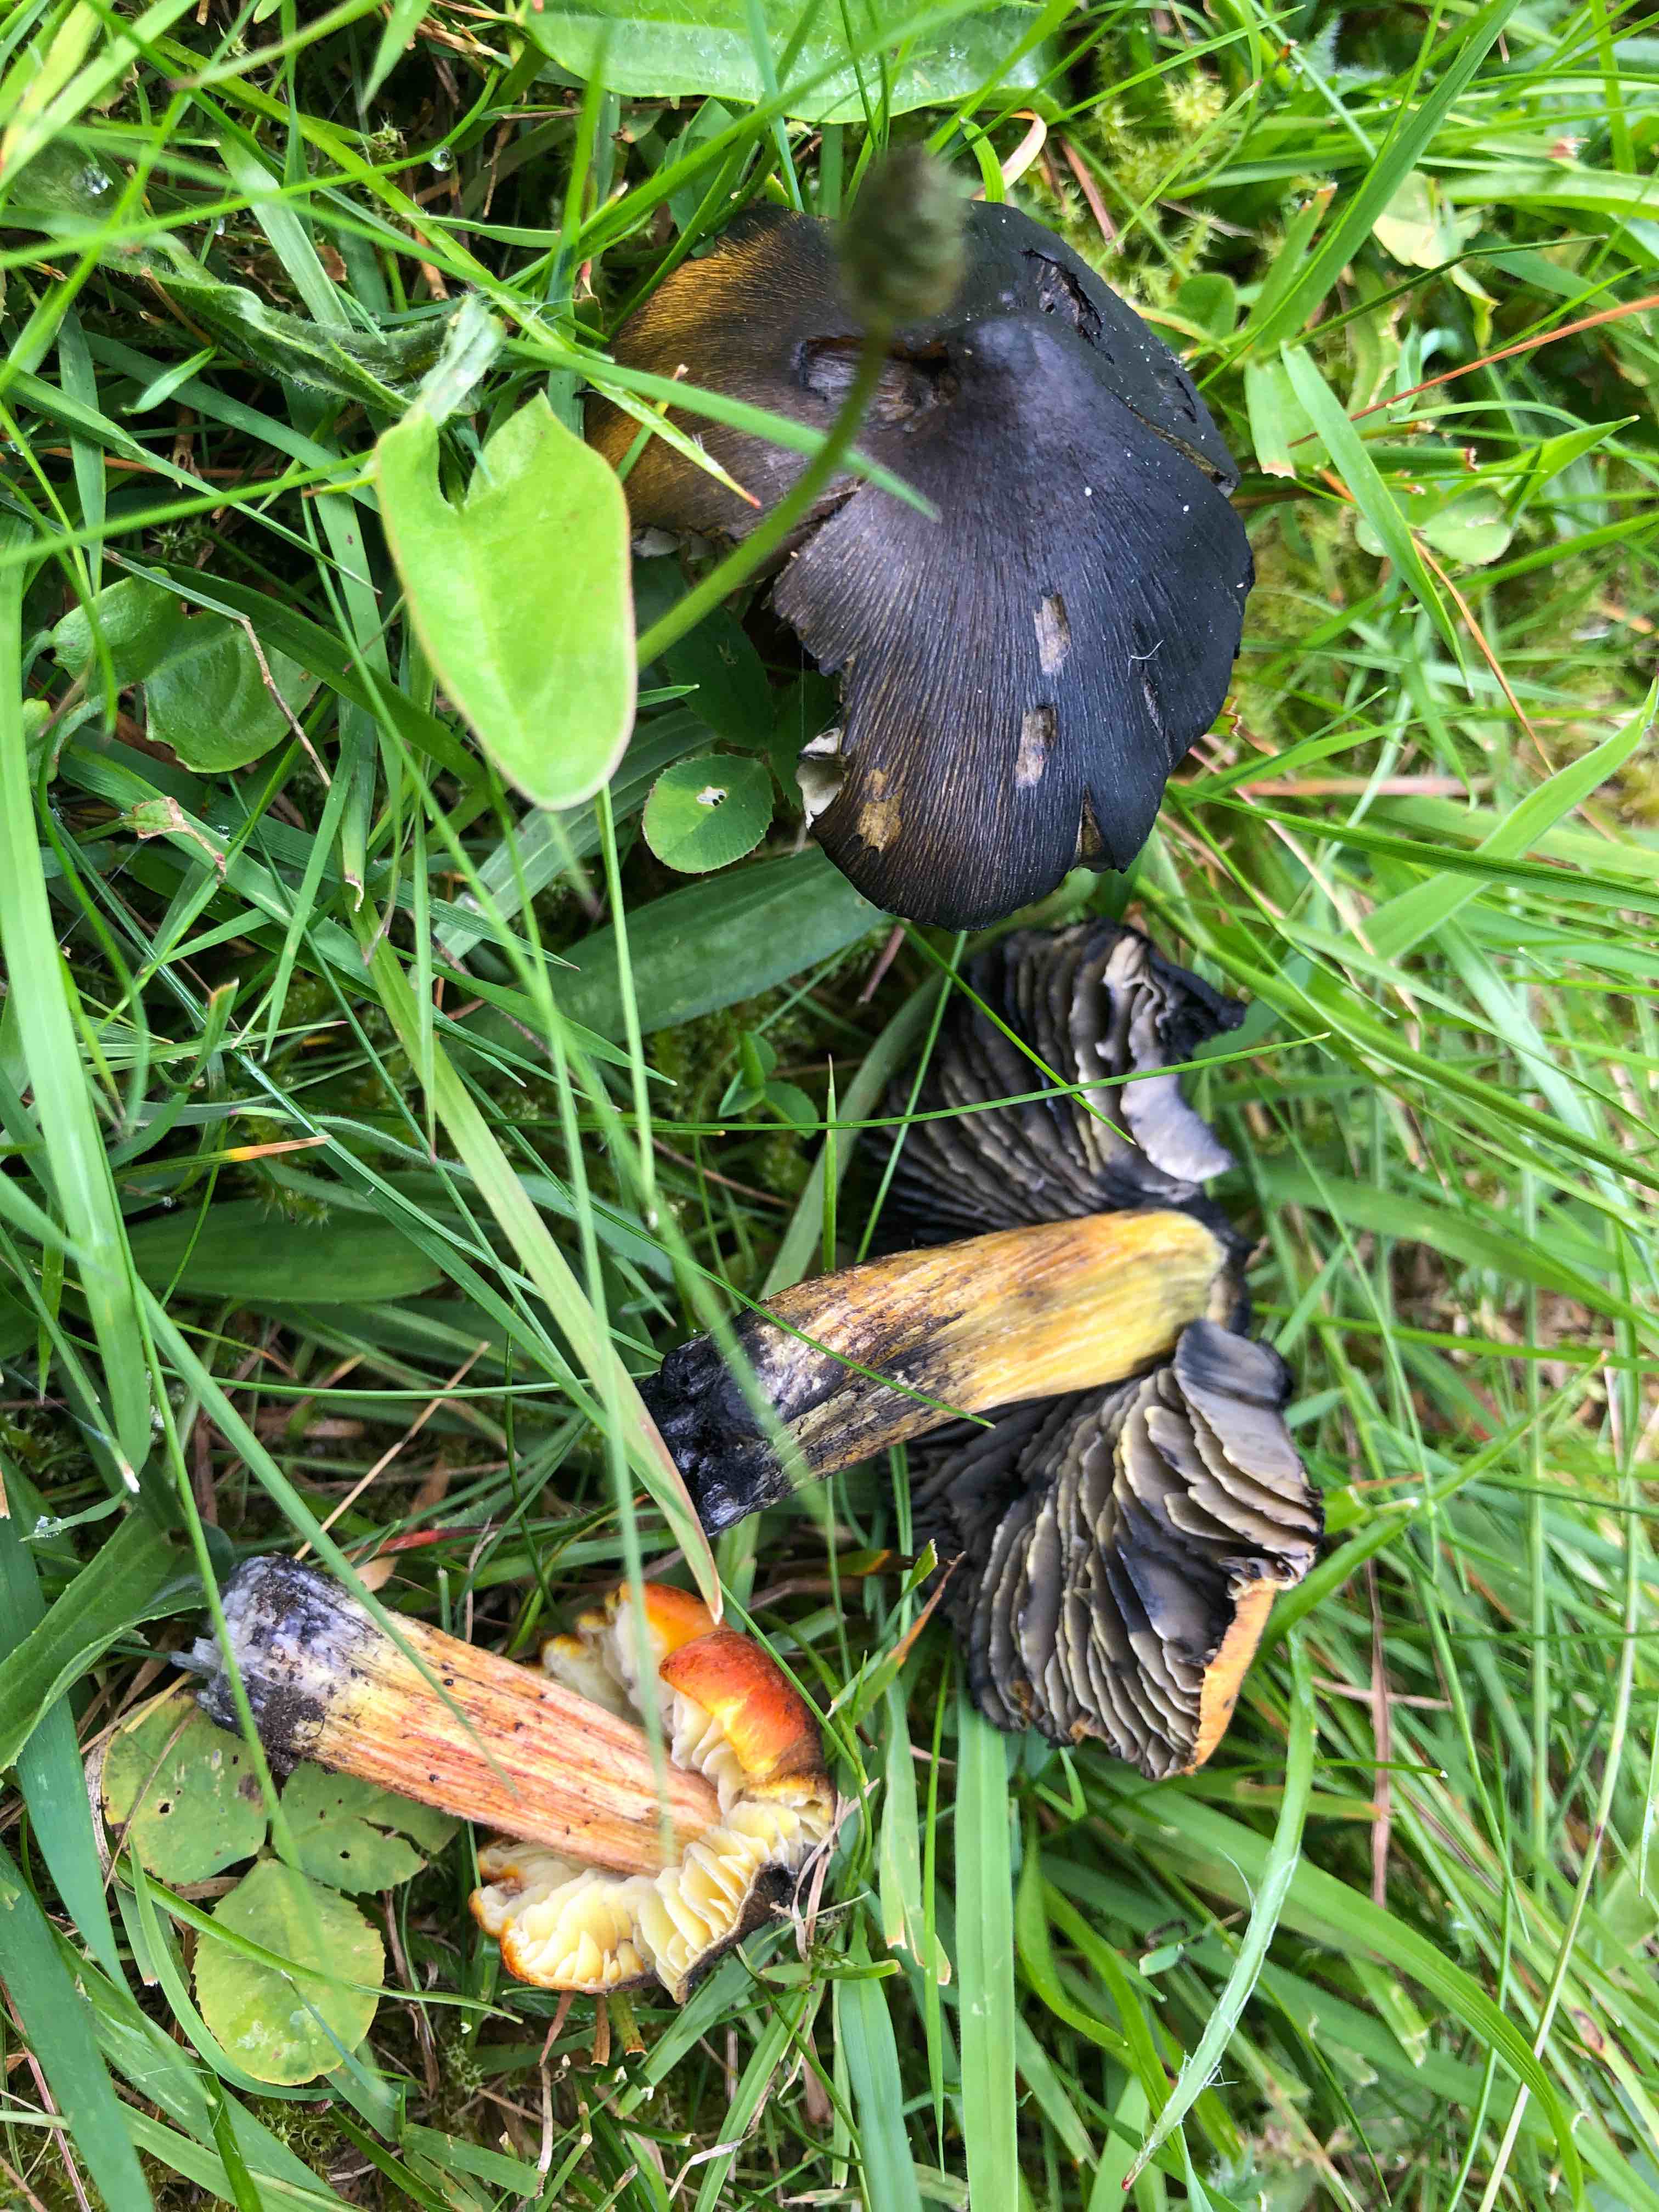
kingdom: Fungi
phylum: Basidiomycota
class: Agaricomycetes
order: Agaricales
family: Hygrophoraceae
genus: Hygrocybe
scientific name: Hygrocybe conica
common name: Blackening wax-cap
